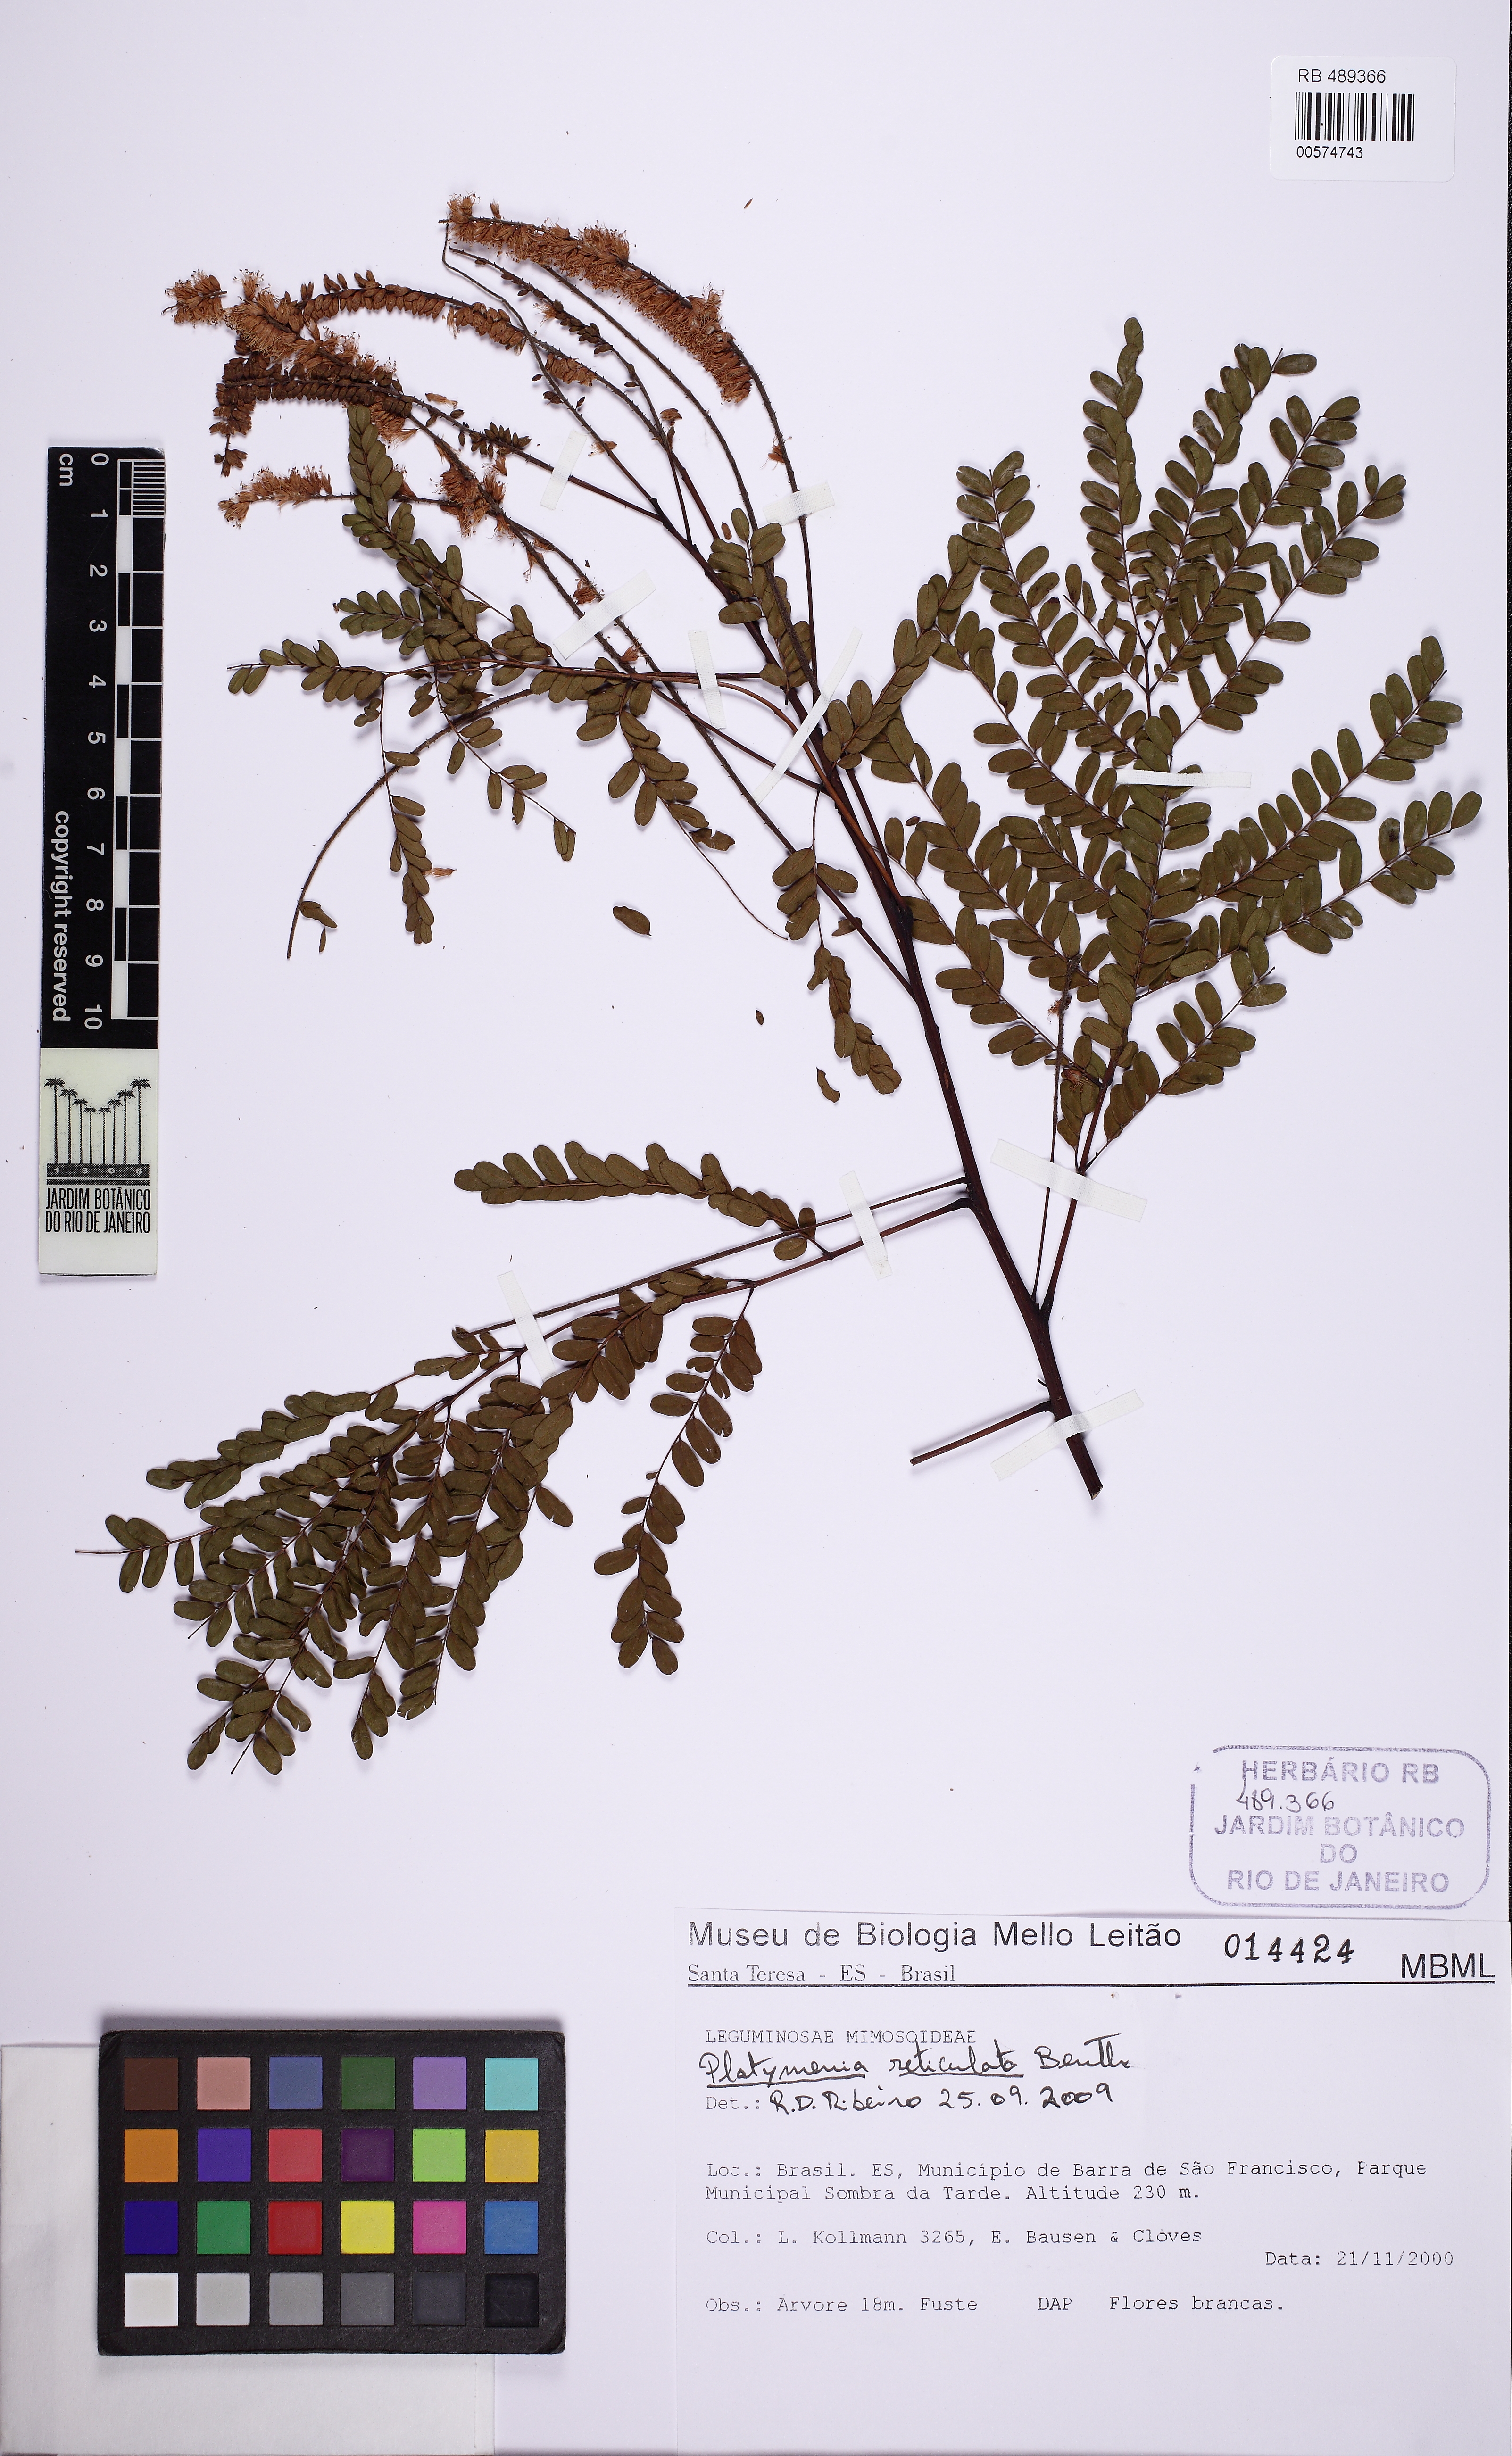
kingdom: Plantae
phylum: Tracheophyta
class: Magnoliopsida
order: Fabales
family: Fabaceae
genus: Plathymenia
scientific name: Plathymenia reticulata
